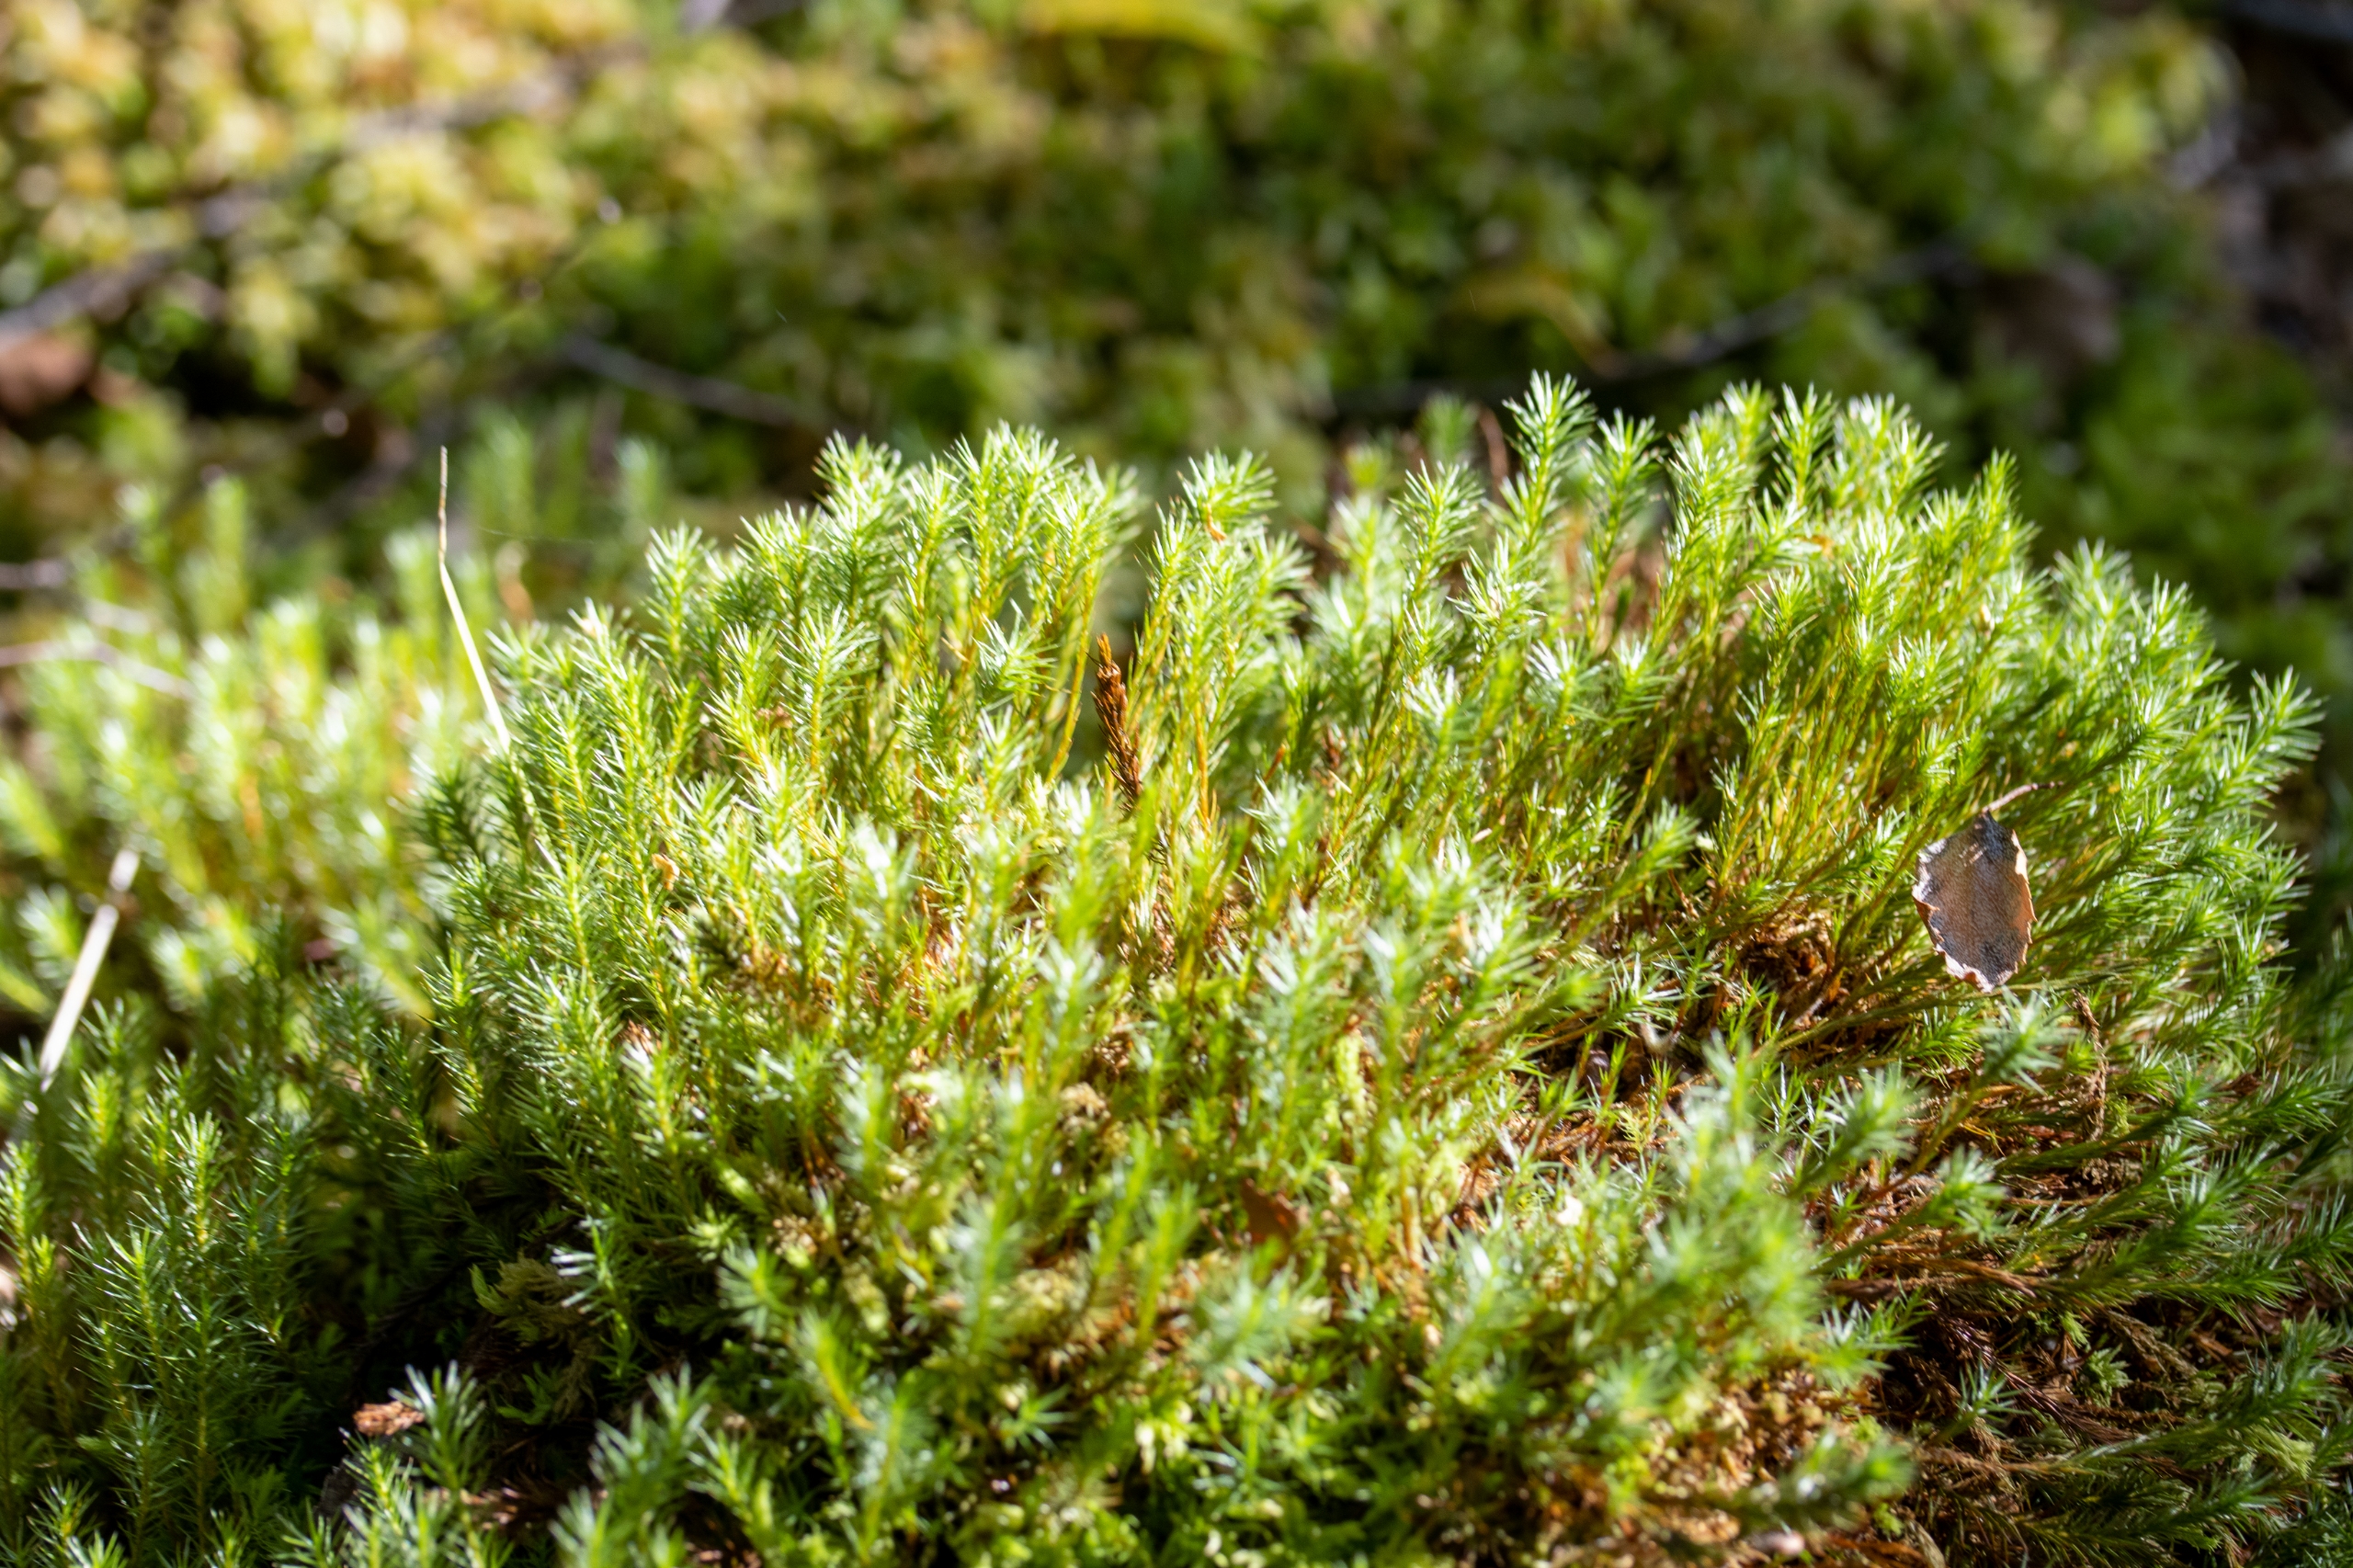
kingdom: Plantae
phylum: Bryophyta
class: Polytrichopsida
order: Polytrichales
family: Polytrichaceae
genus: Polytrichum
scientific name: Polytrichum strictum
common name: Filtstænglet jomfruhår
